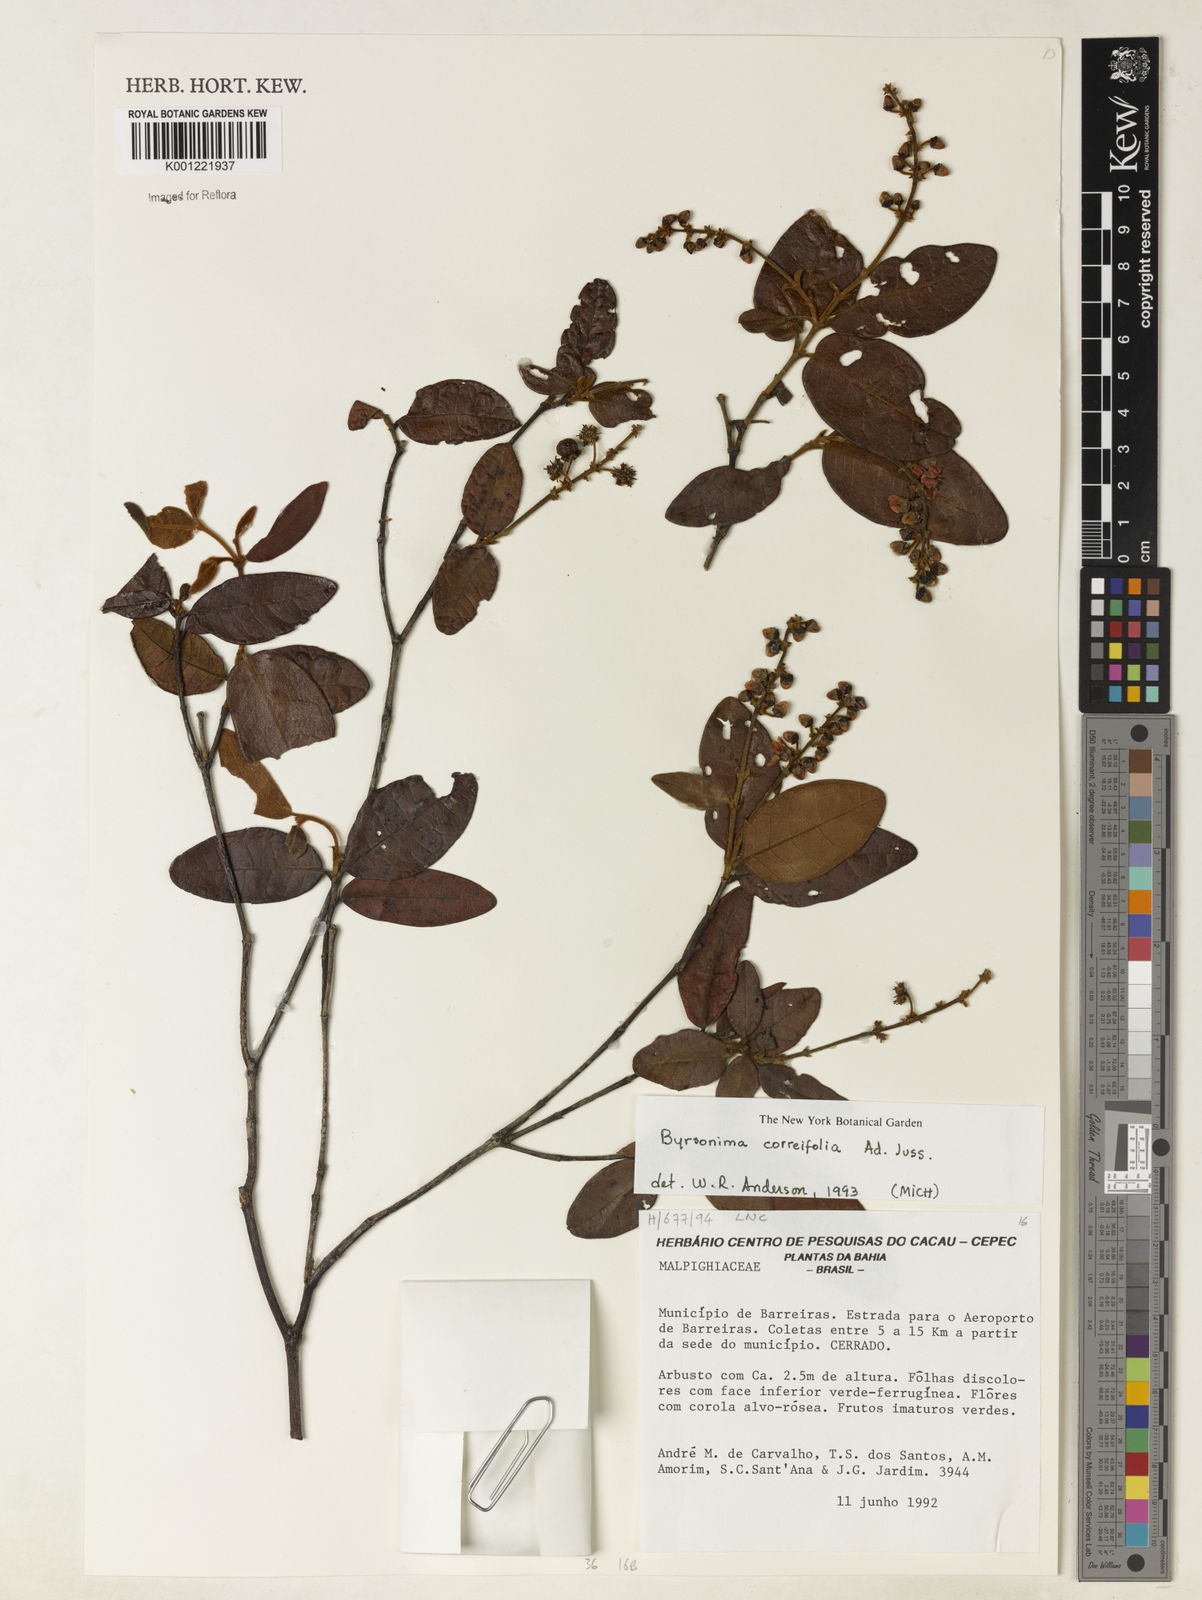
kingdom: Plantae
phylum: Tracheophyta
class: Magnoliopsida
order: Malpighiales
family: Malpighiaceae
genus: Byrsonima
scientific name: Byrsonima correifolia
